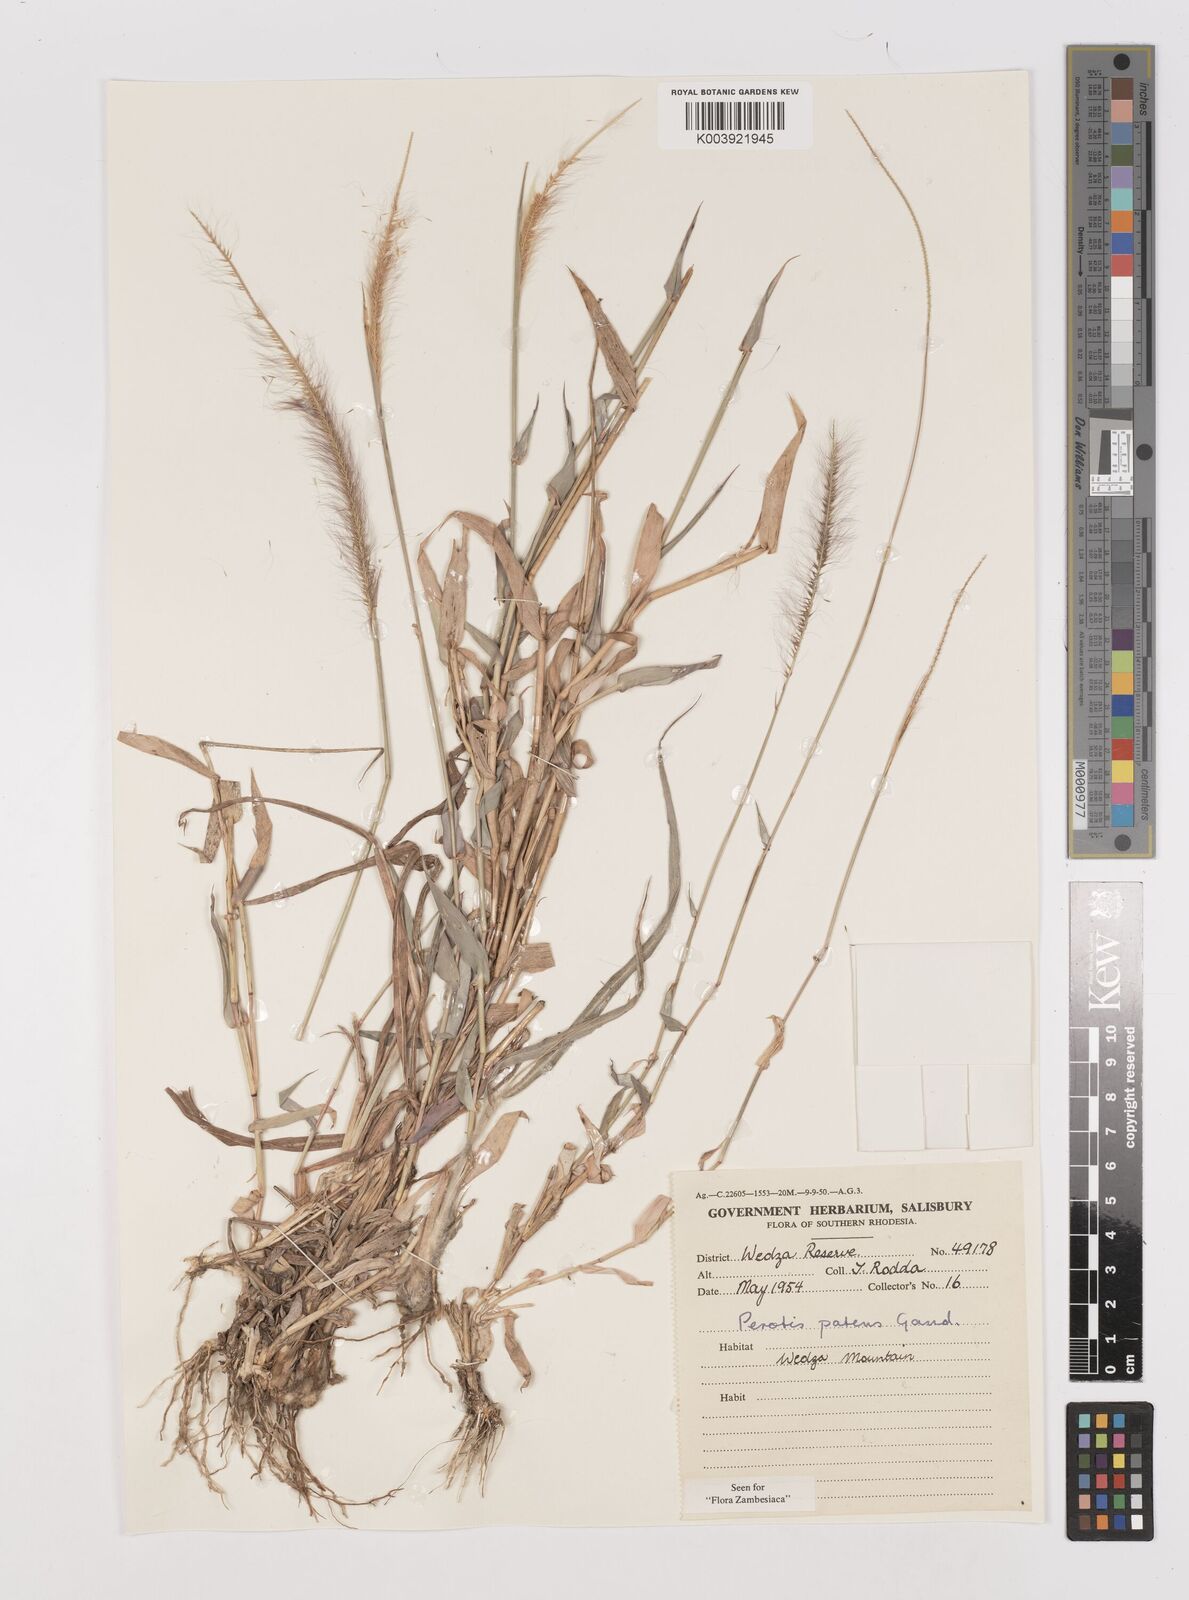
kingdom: Plantae
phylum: Tracheophyta
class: Liliopsida
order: Poales
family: Poaceae
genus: Perotis
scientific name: Perotis patens
